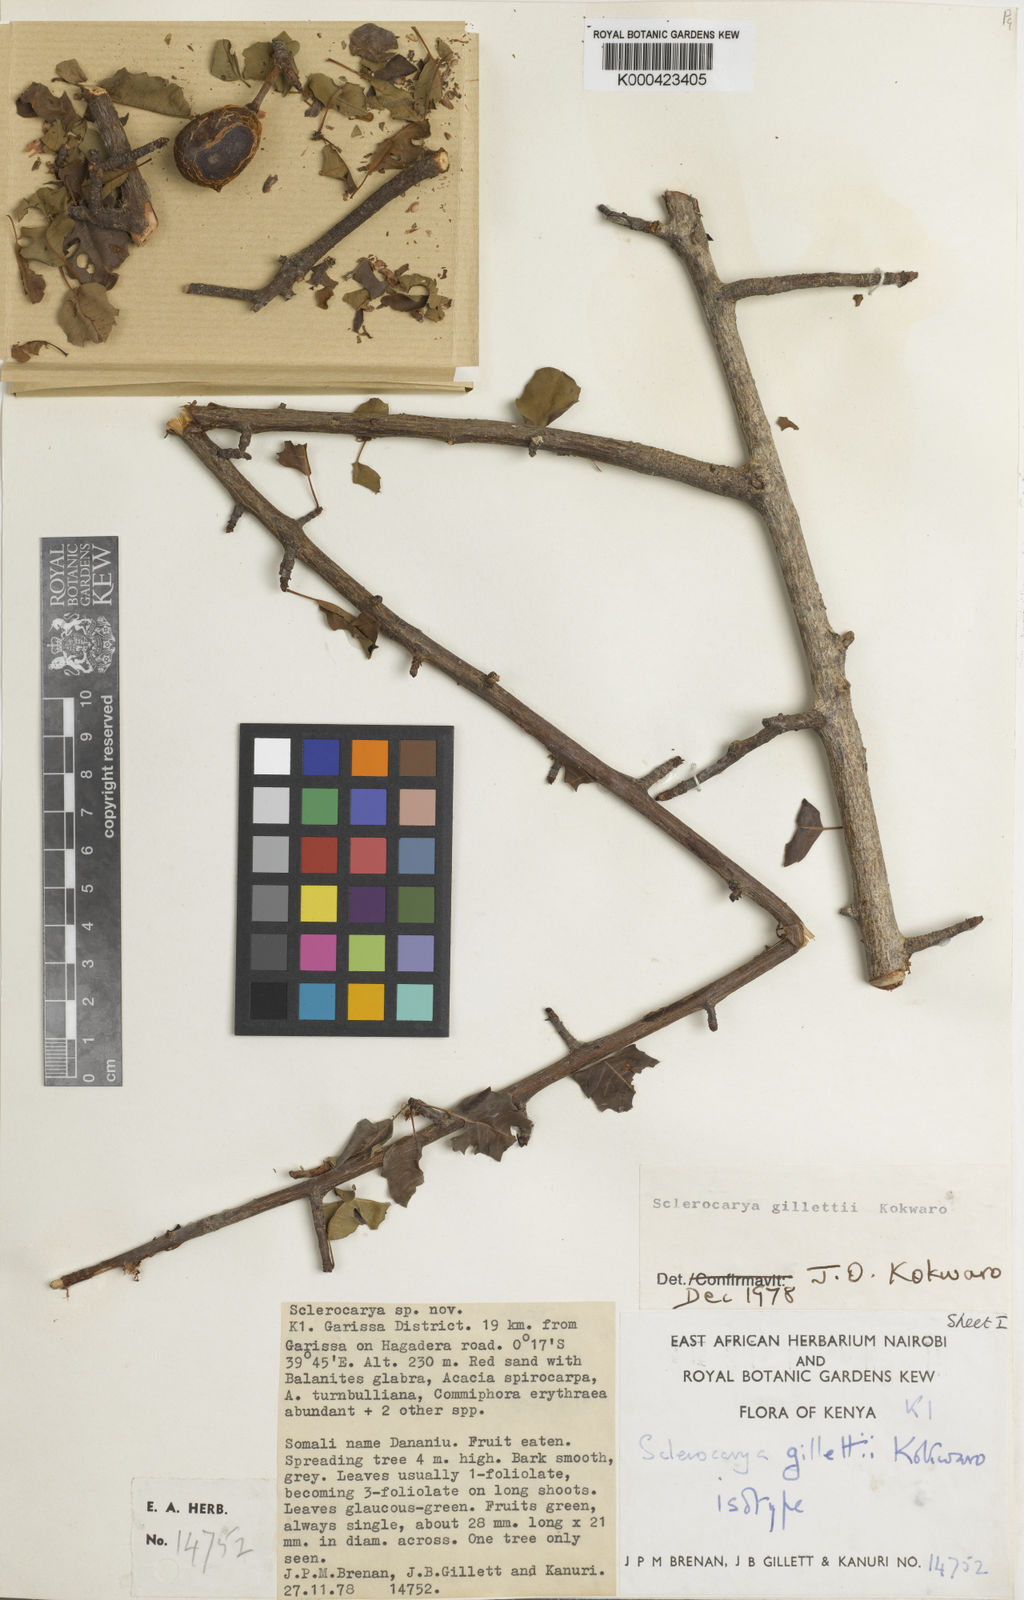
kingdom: Plantae
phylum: Tracheophyta
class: Magnoliopsida
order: Sapindales
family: Anacardiaceae
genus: Sclerocarya
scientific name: Sclerocarya gillettii
